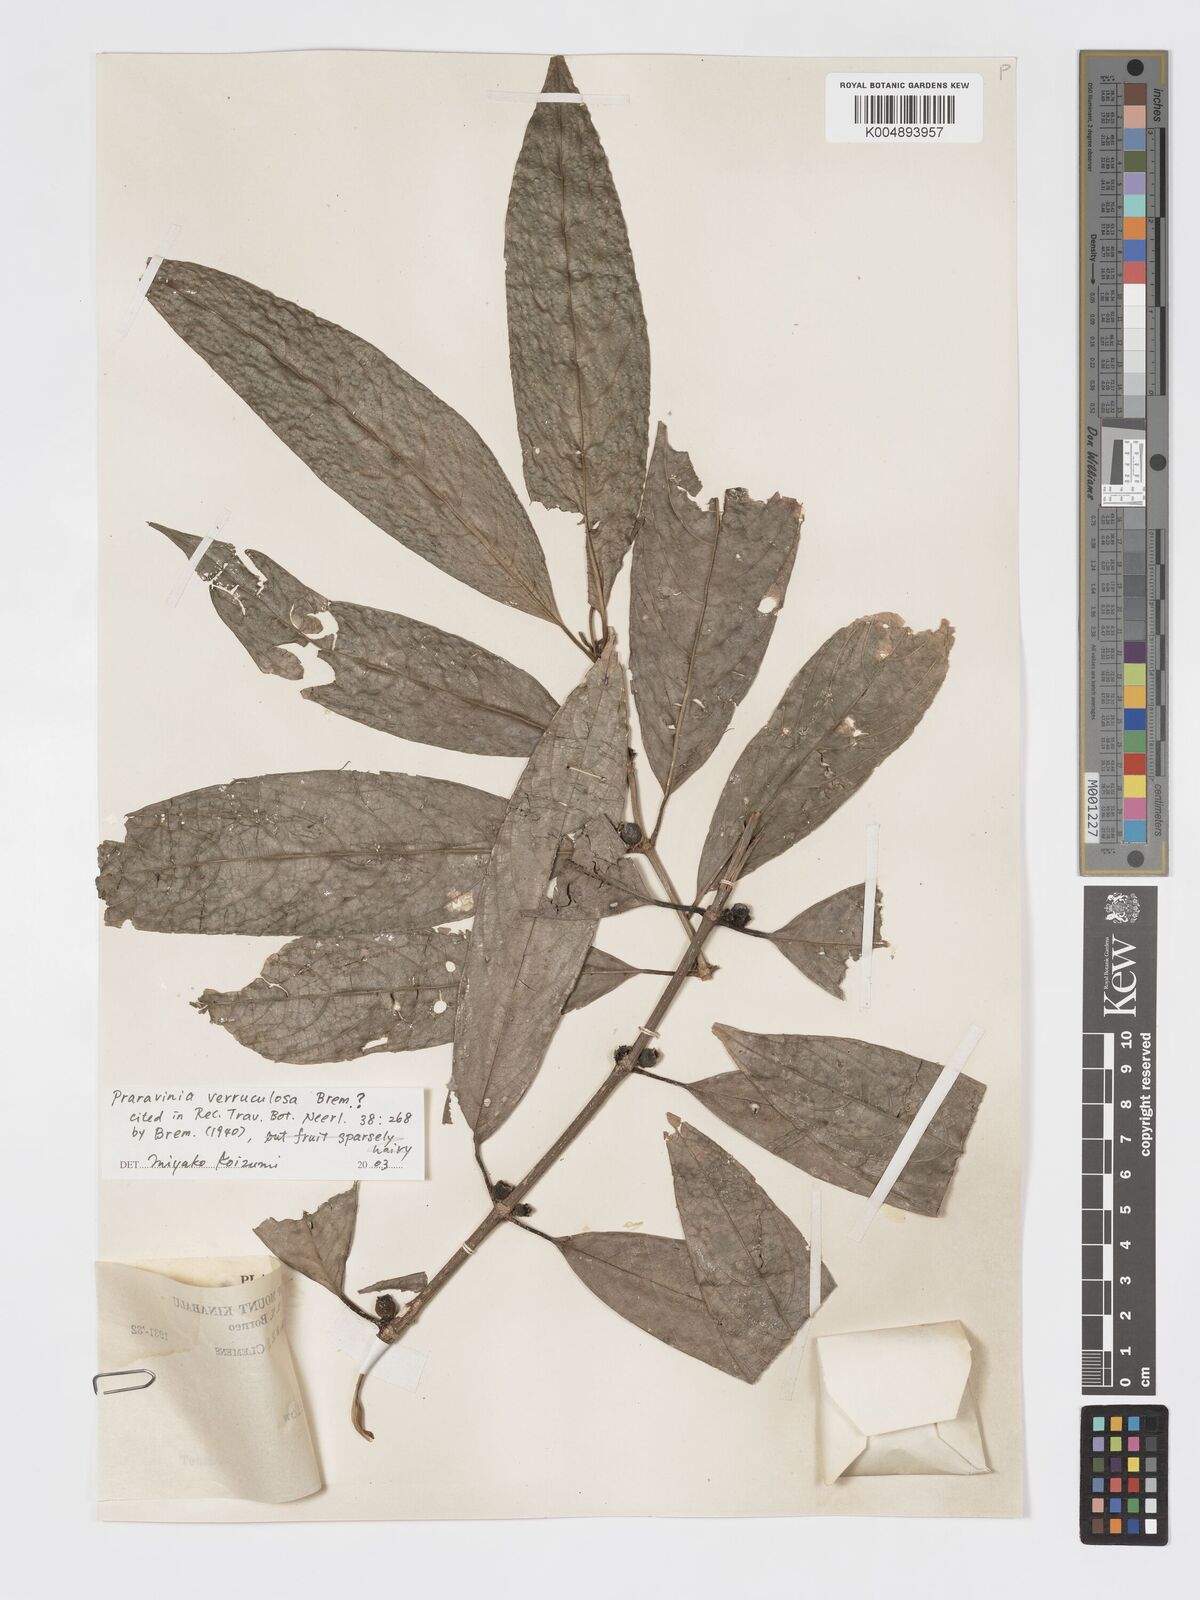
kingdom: Plantae
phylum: Tracheophyta
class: Magnoliopsida
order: Gentianales
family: Rubiaceae
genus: Praravinia
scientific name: Praravinia verruculosa
